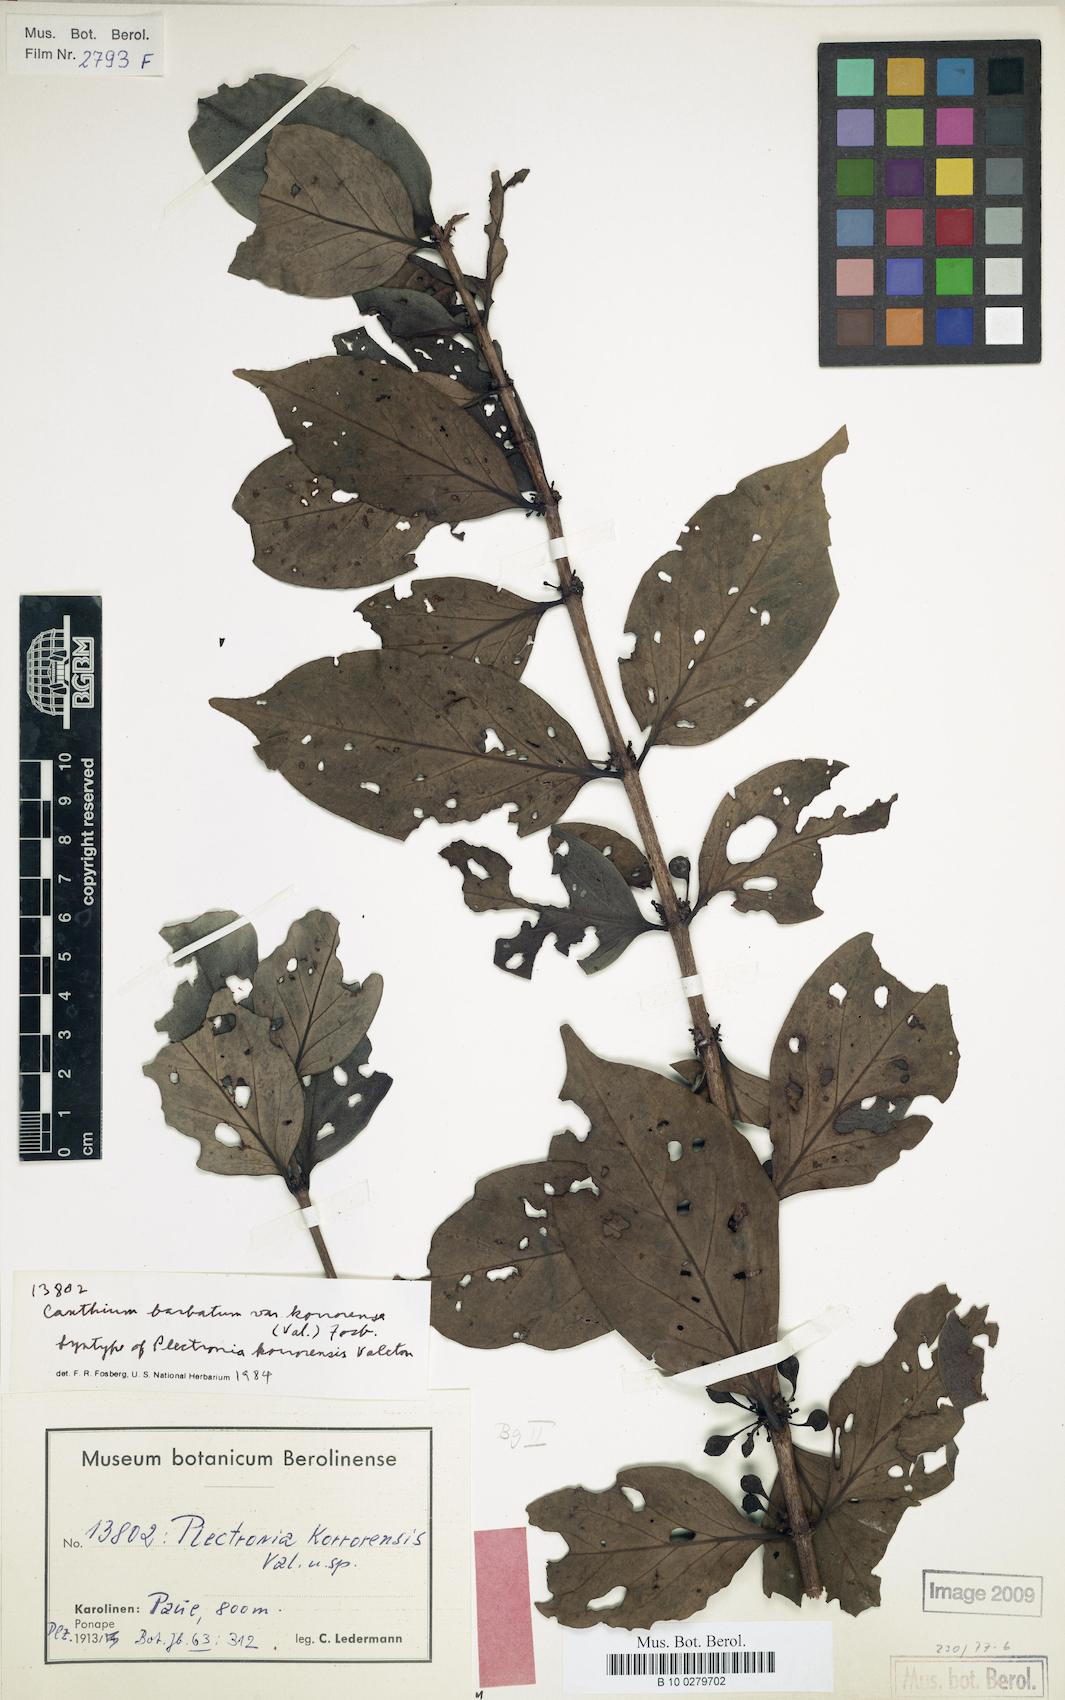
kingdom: Plantae
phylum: Tracheophyta
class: Magnoliopsida
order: Gentianales
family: Rubiaceae
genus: Cyclophyllum
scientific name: Cyclophyllum barbatum
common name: Cyclophyllum
